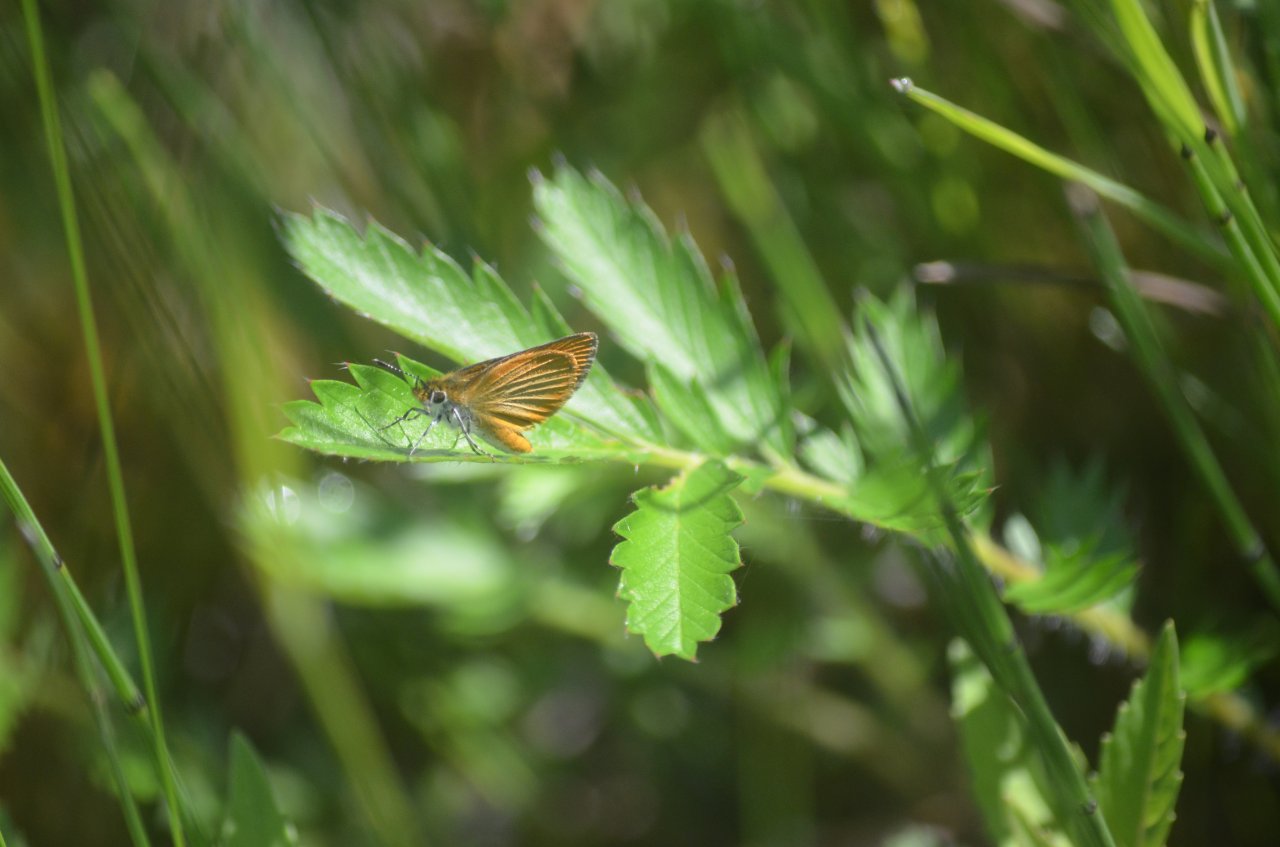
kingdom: Animalia
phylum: Arthropoda
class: Insecta
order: Lepidoptera
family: Hesperiidae
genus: Ancyloxypha
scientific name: Ancyloxypha numitor
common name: Least Skipper
